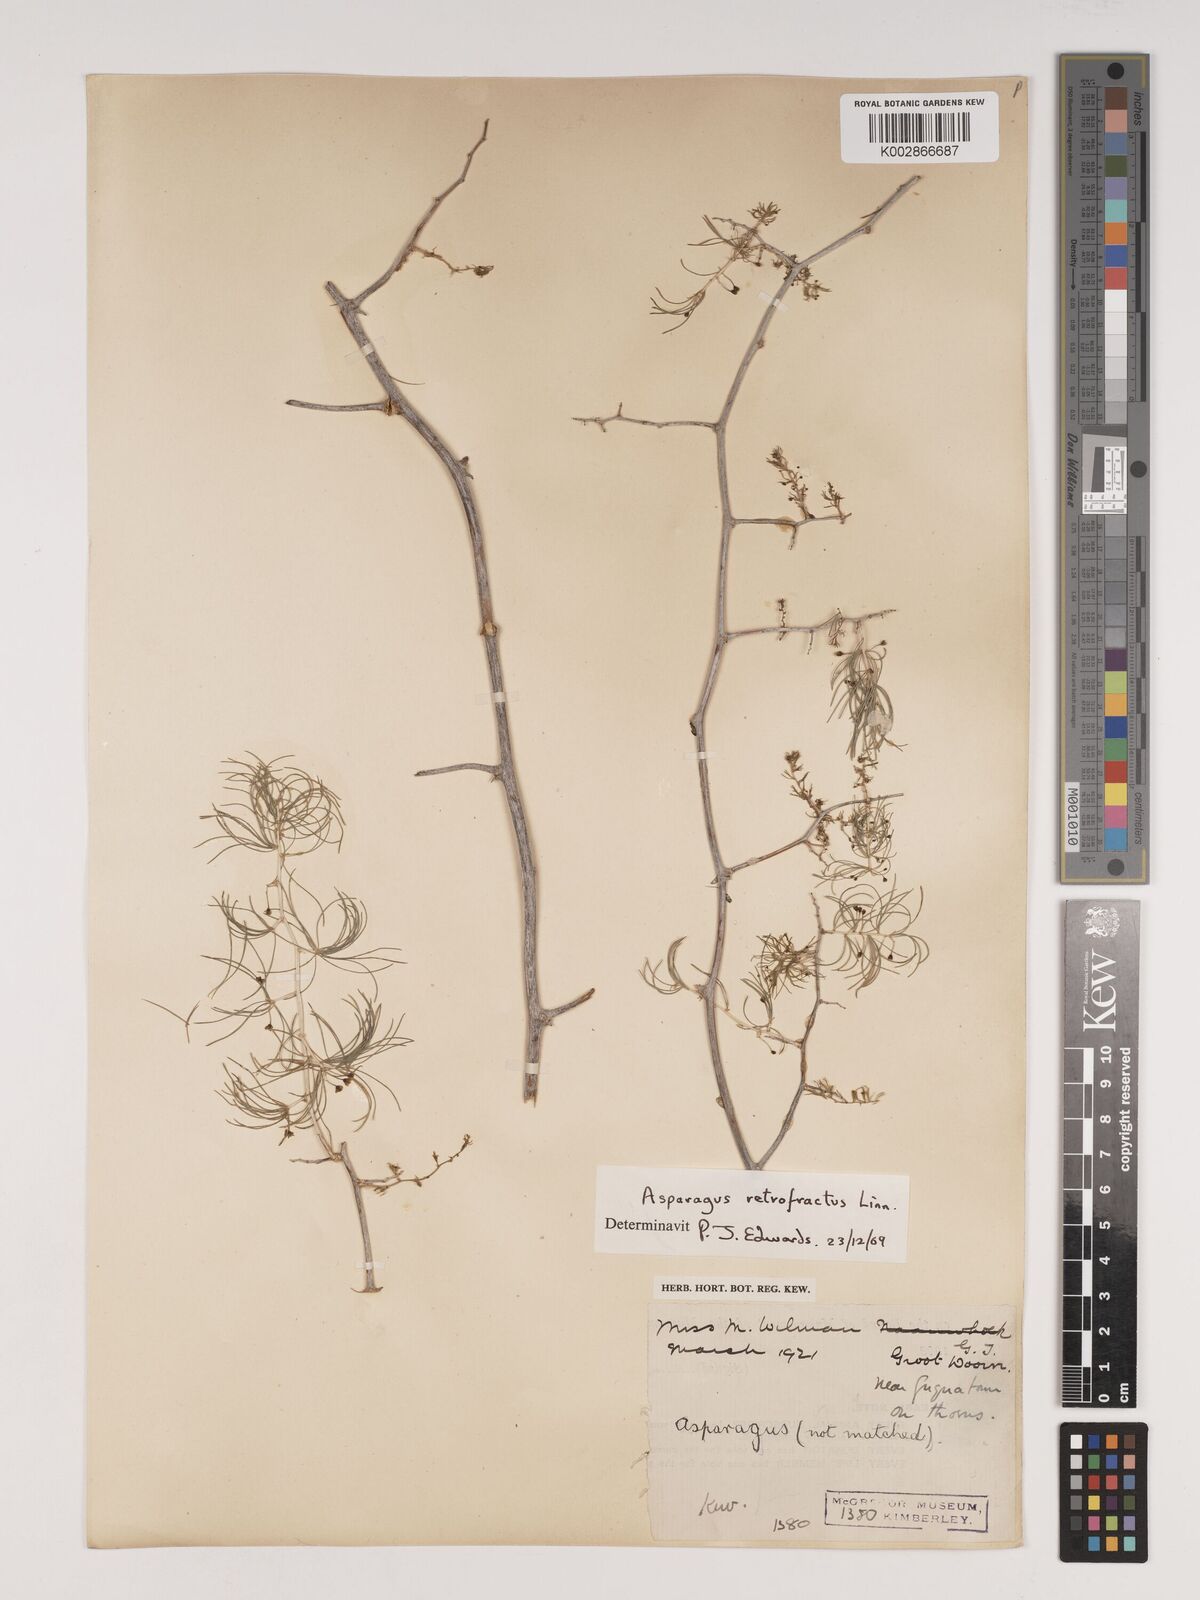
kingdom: Plantae
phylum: Tracheophyta
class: Liliopsida
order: Asparagales
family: Asparagaceae
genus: Asparagus
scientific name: Asparagus retrofractus
